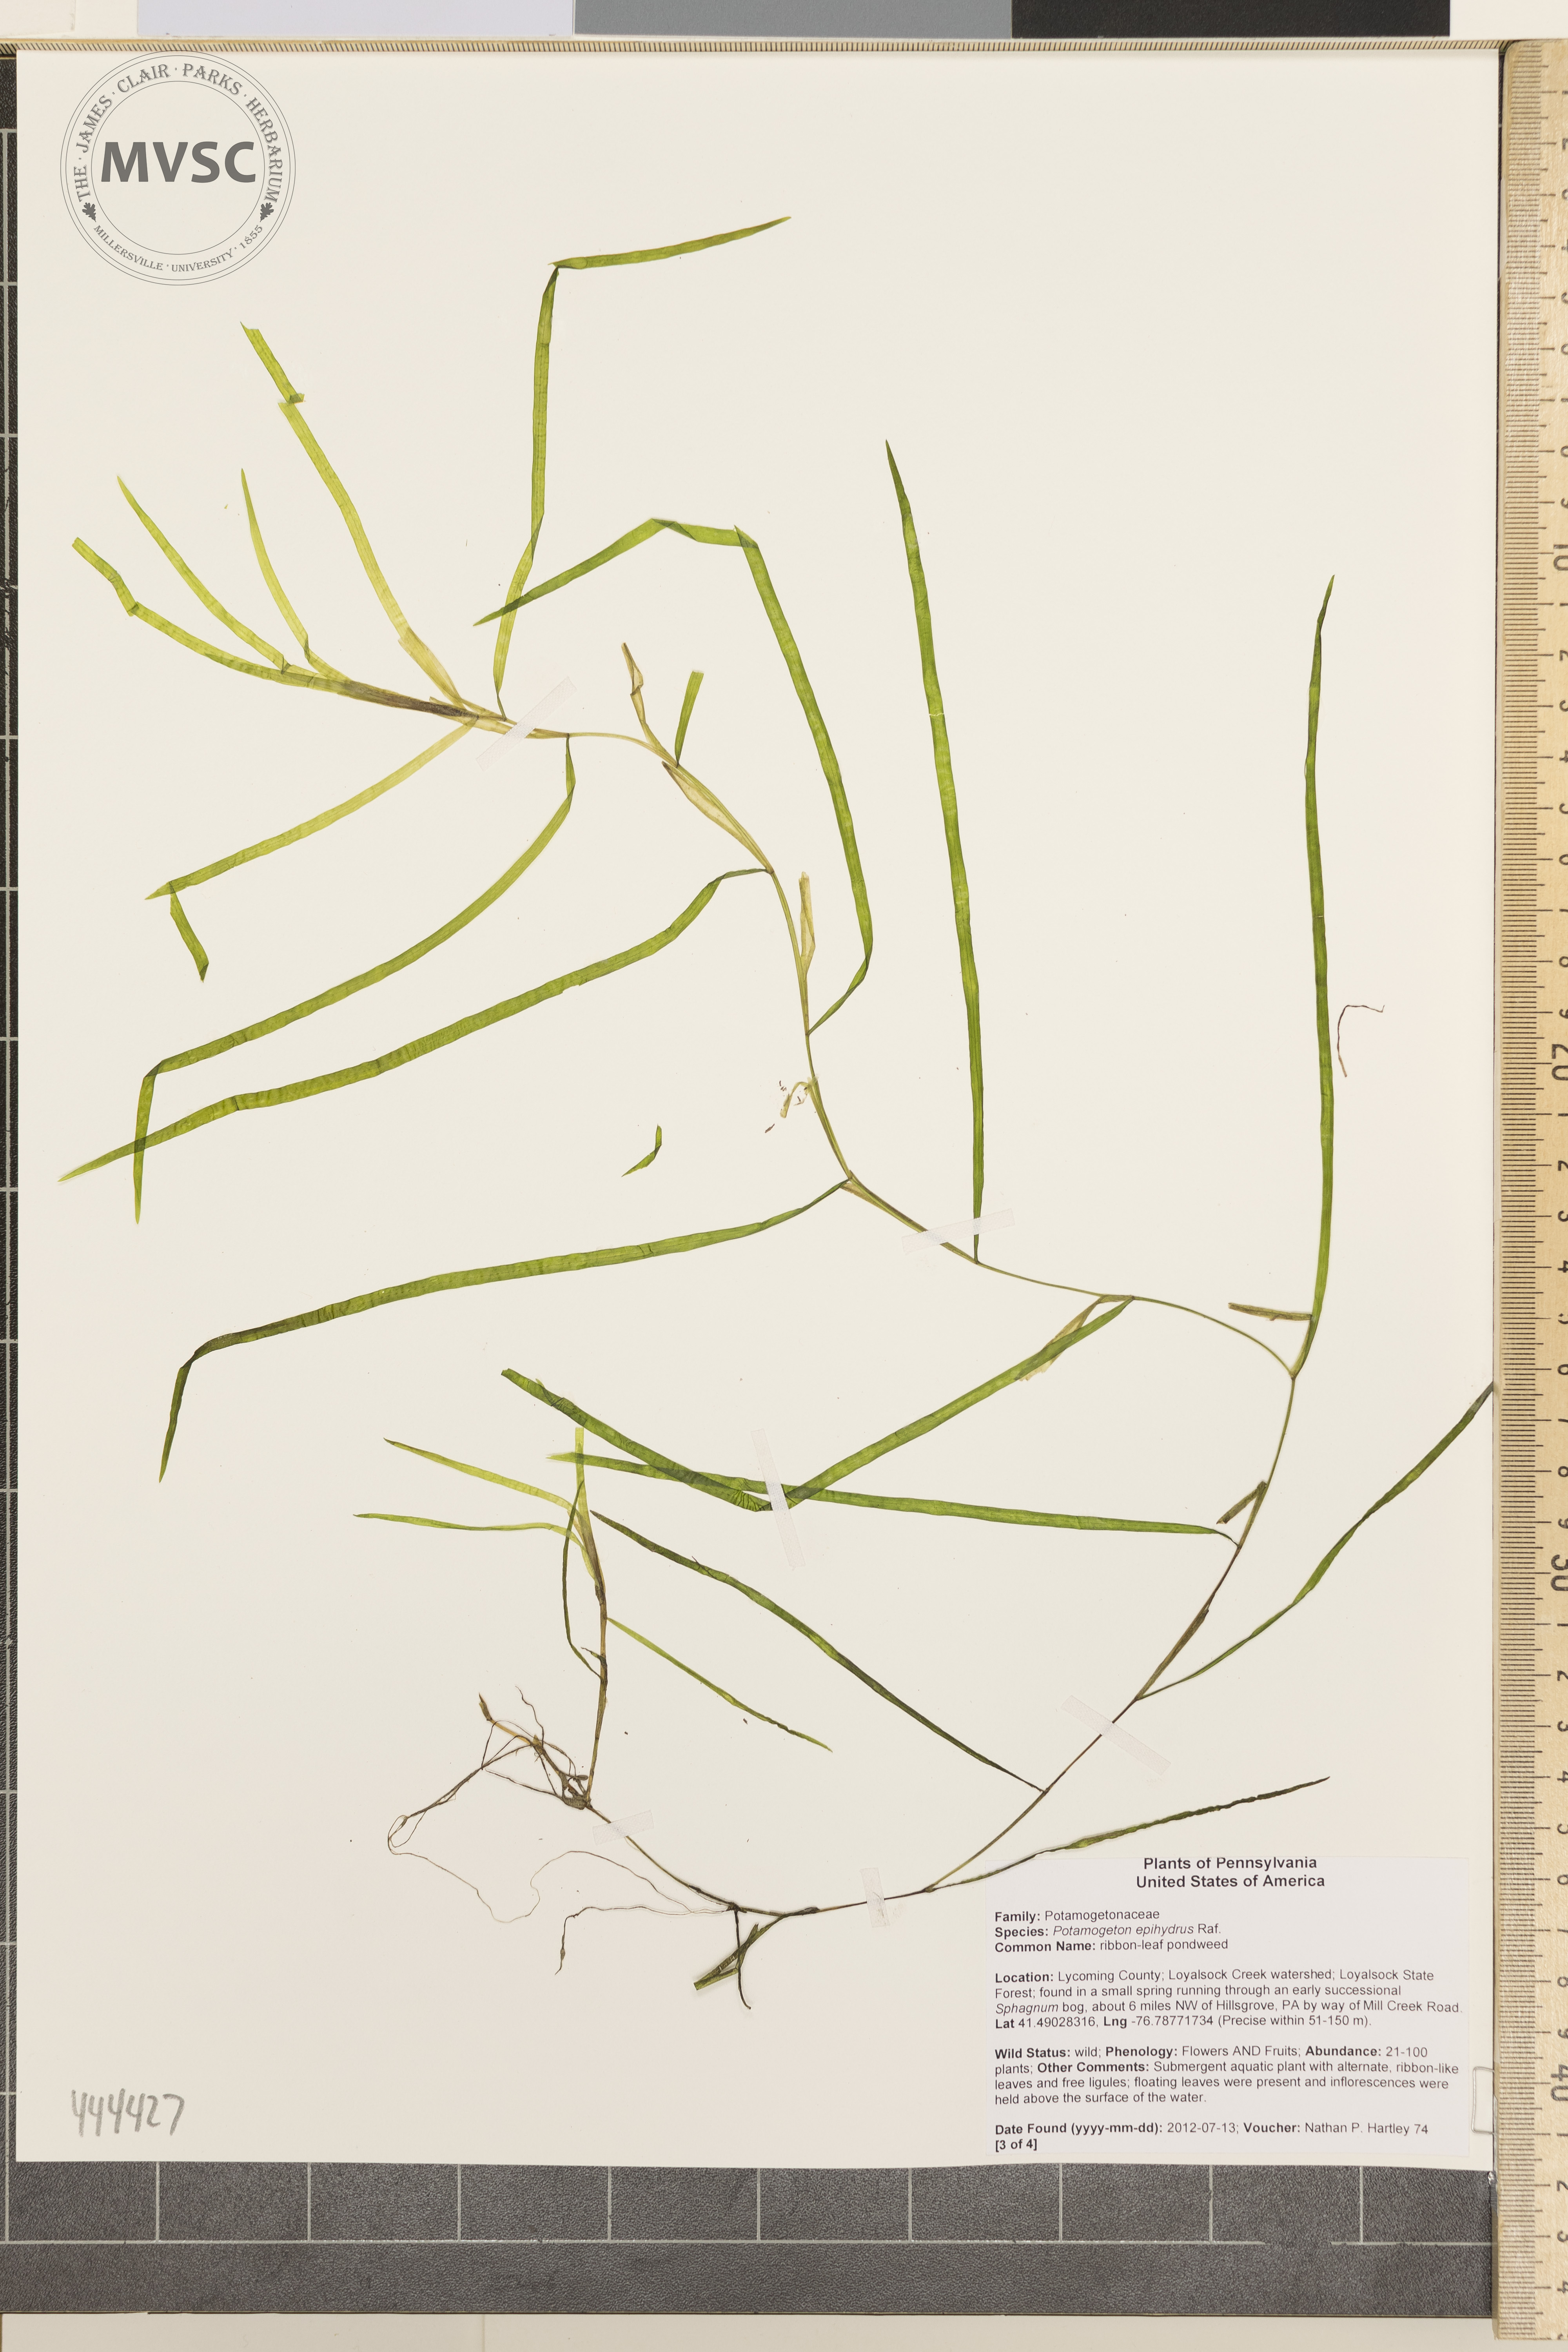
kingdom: Plantae
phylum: Tracheophyta
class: Liliopsida
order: Alismatales
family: Potamogetonaceae
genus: Potamogeton
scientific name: Potamogeton epihydrus
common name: Ribbonleaf pondweed
